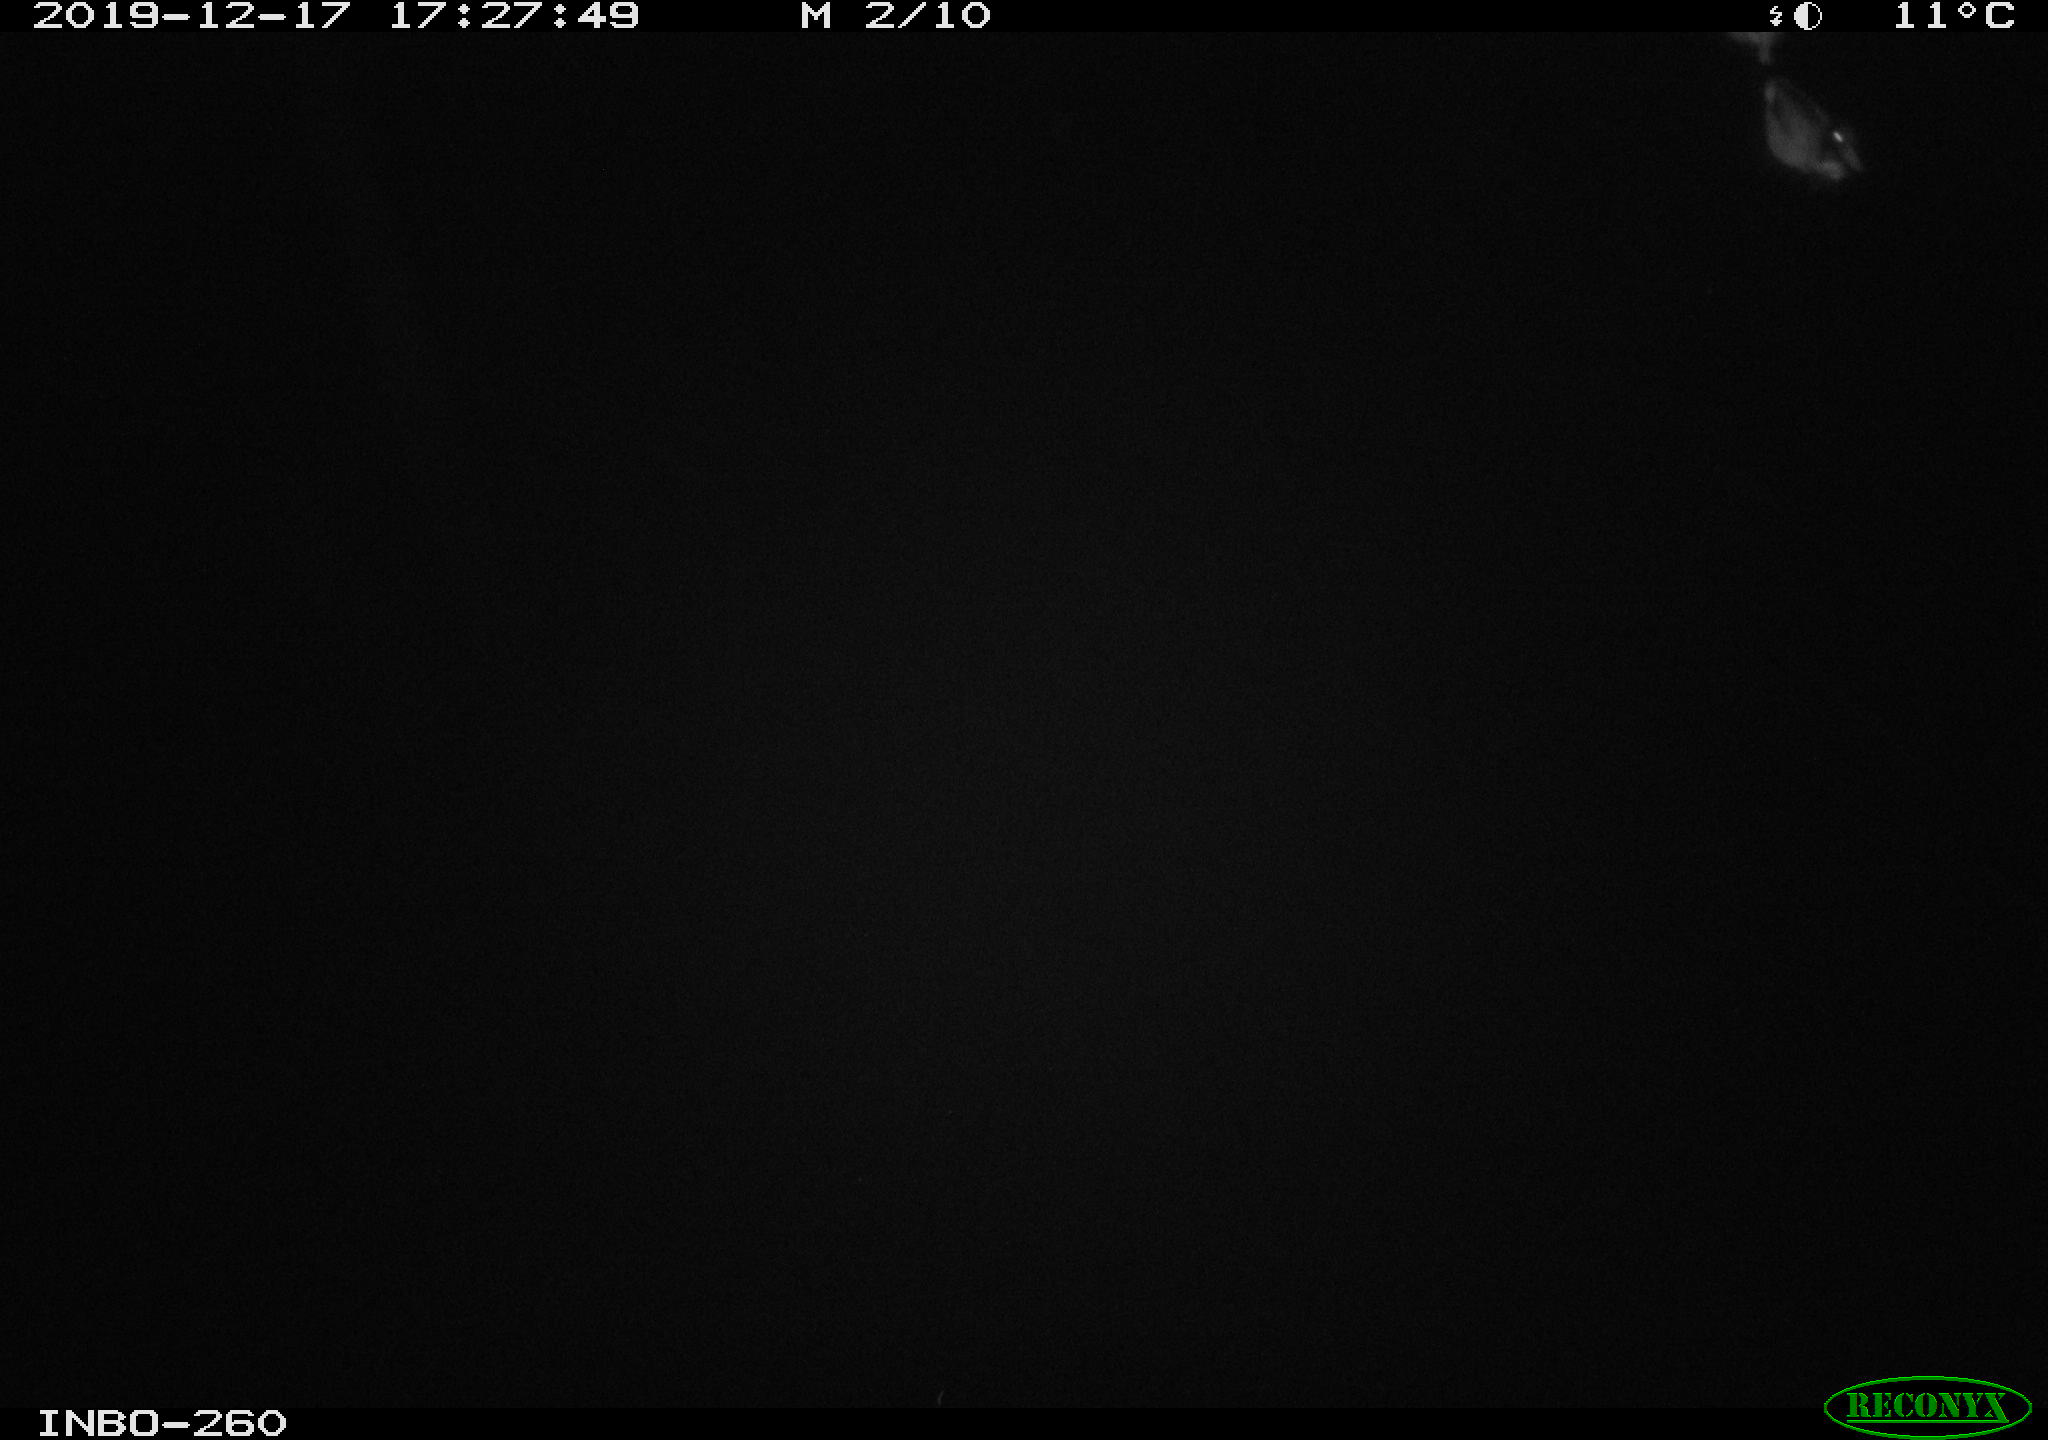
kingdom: Animalia
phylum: Chordata
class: Aves
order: Anseriformes
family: Anatidae
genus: Anas
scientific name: Anas platyrhynchos
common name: Mallard
